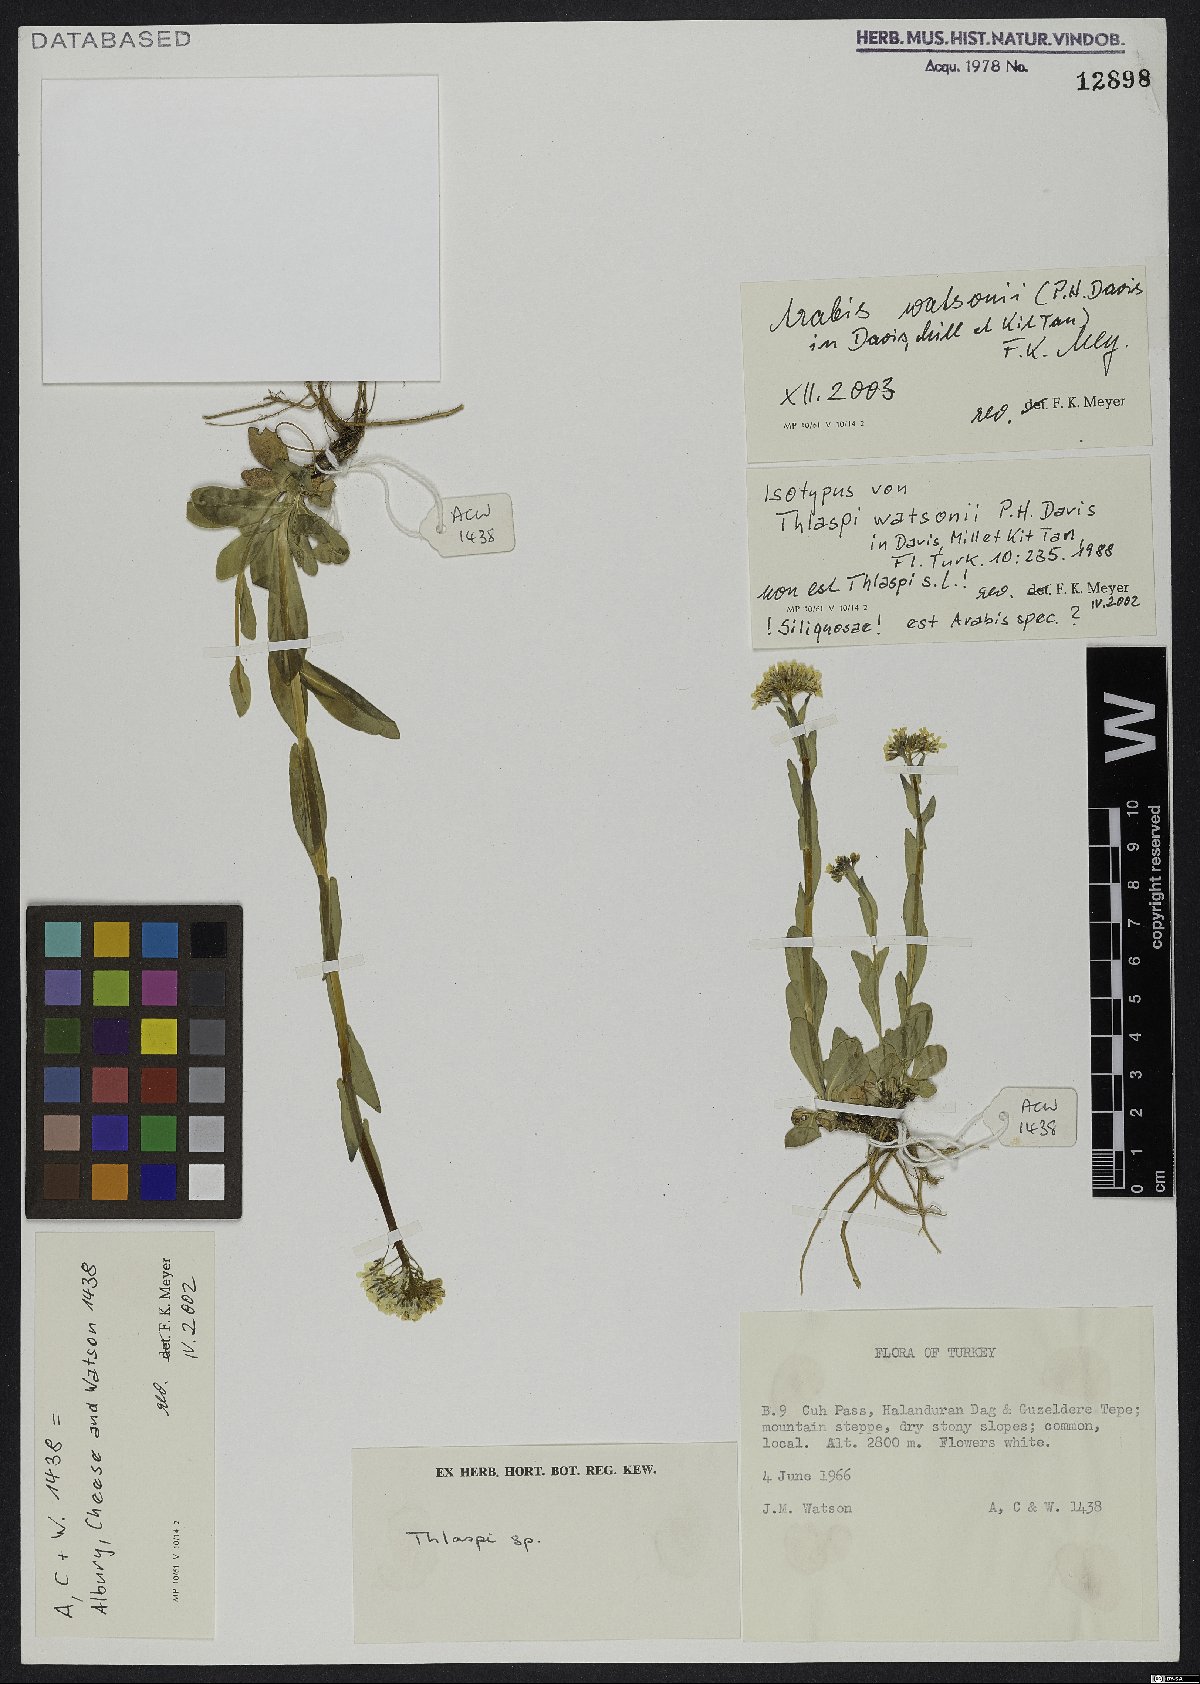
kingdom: Plantae
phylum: Tracheophyta
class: Magnoliopsida
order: Brassicales
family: Brassicaceae
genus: Thlaspi
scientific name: Thlaspi watsonii
